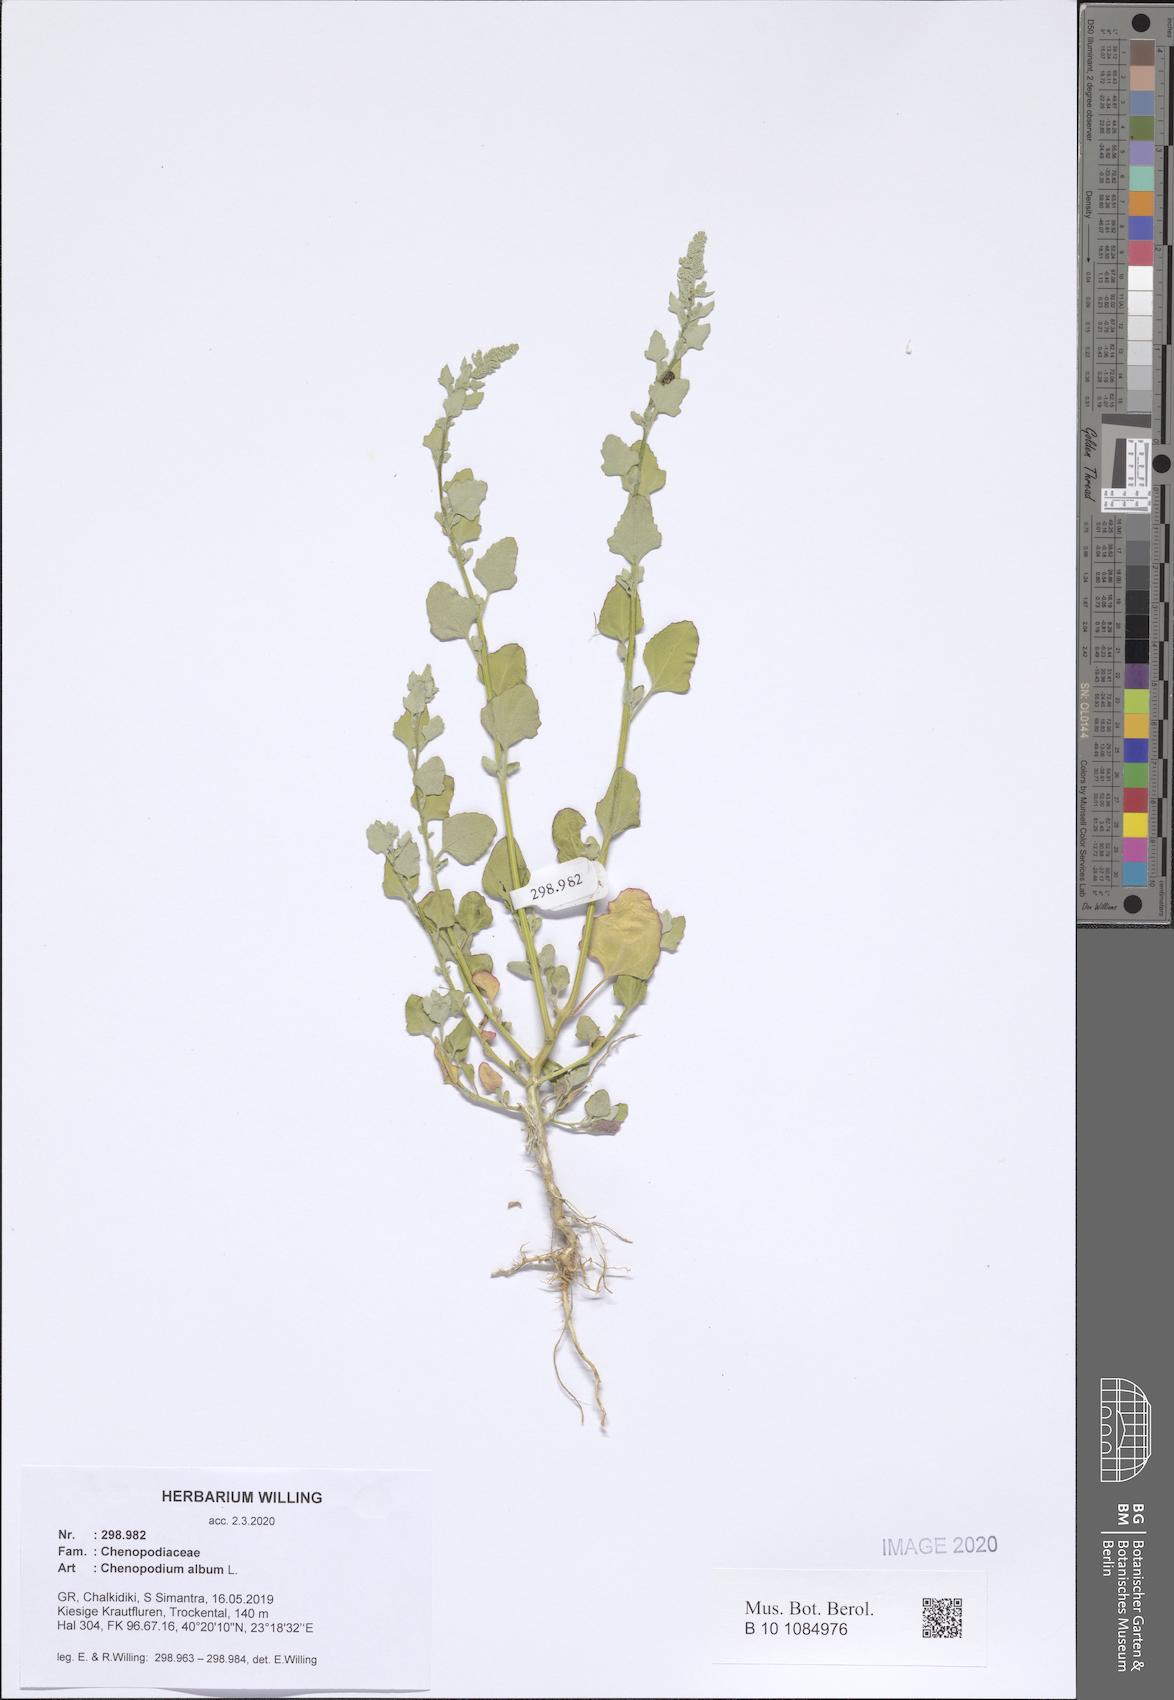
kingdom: Plantae
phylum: Tracheophyta
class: Magnoliopsida
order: Caryophyllales
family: Amaranthaceae
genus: Chenopodium
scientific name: Chenopodium album
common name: Fat-hen
